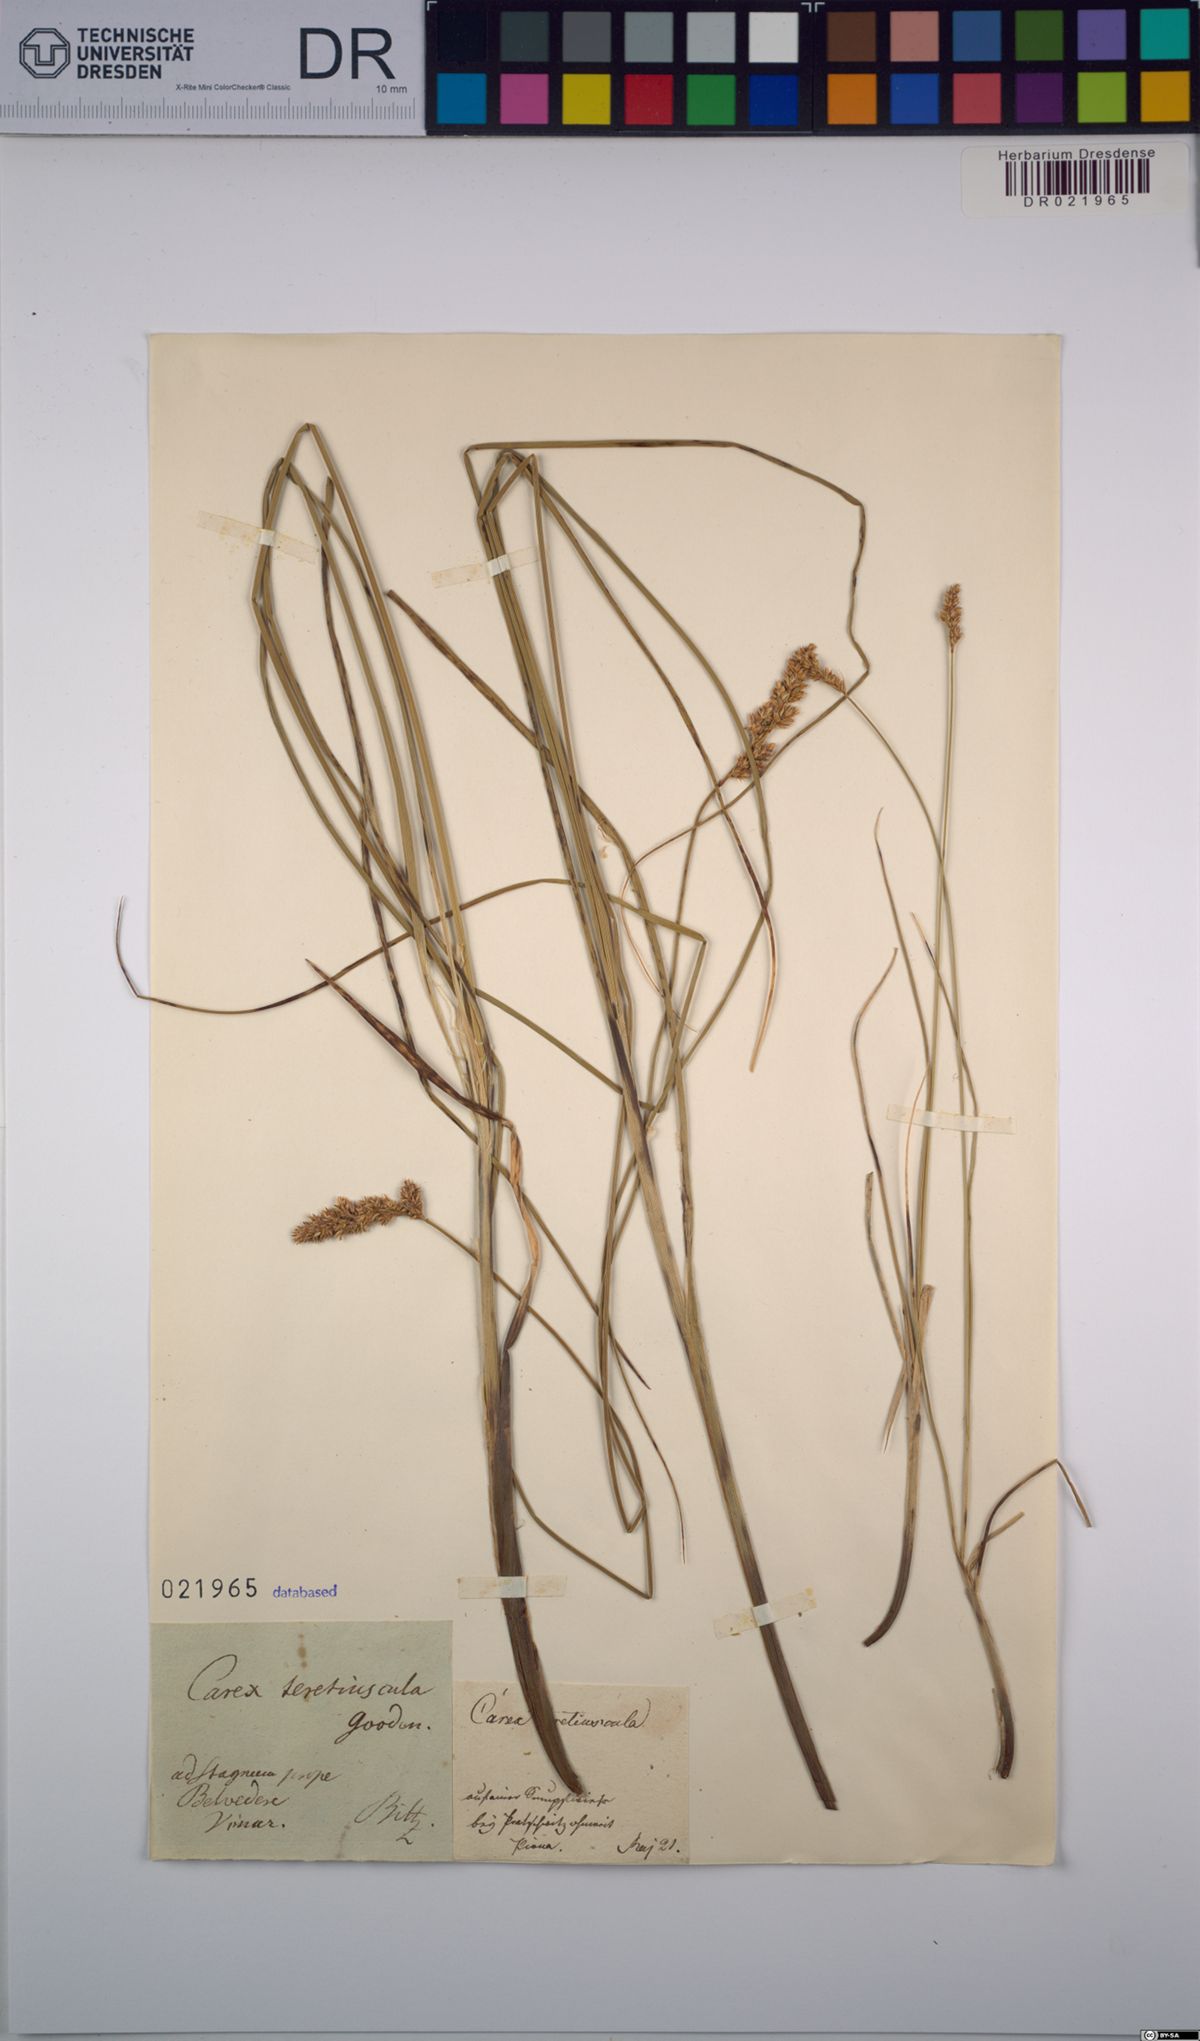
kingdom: Plantae
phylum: Tracheophyta
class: Liliopsida
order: Poales
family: Cyperaceae
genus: Carex
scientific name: Carex diandra
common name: Lesser tussock-sedge
